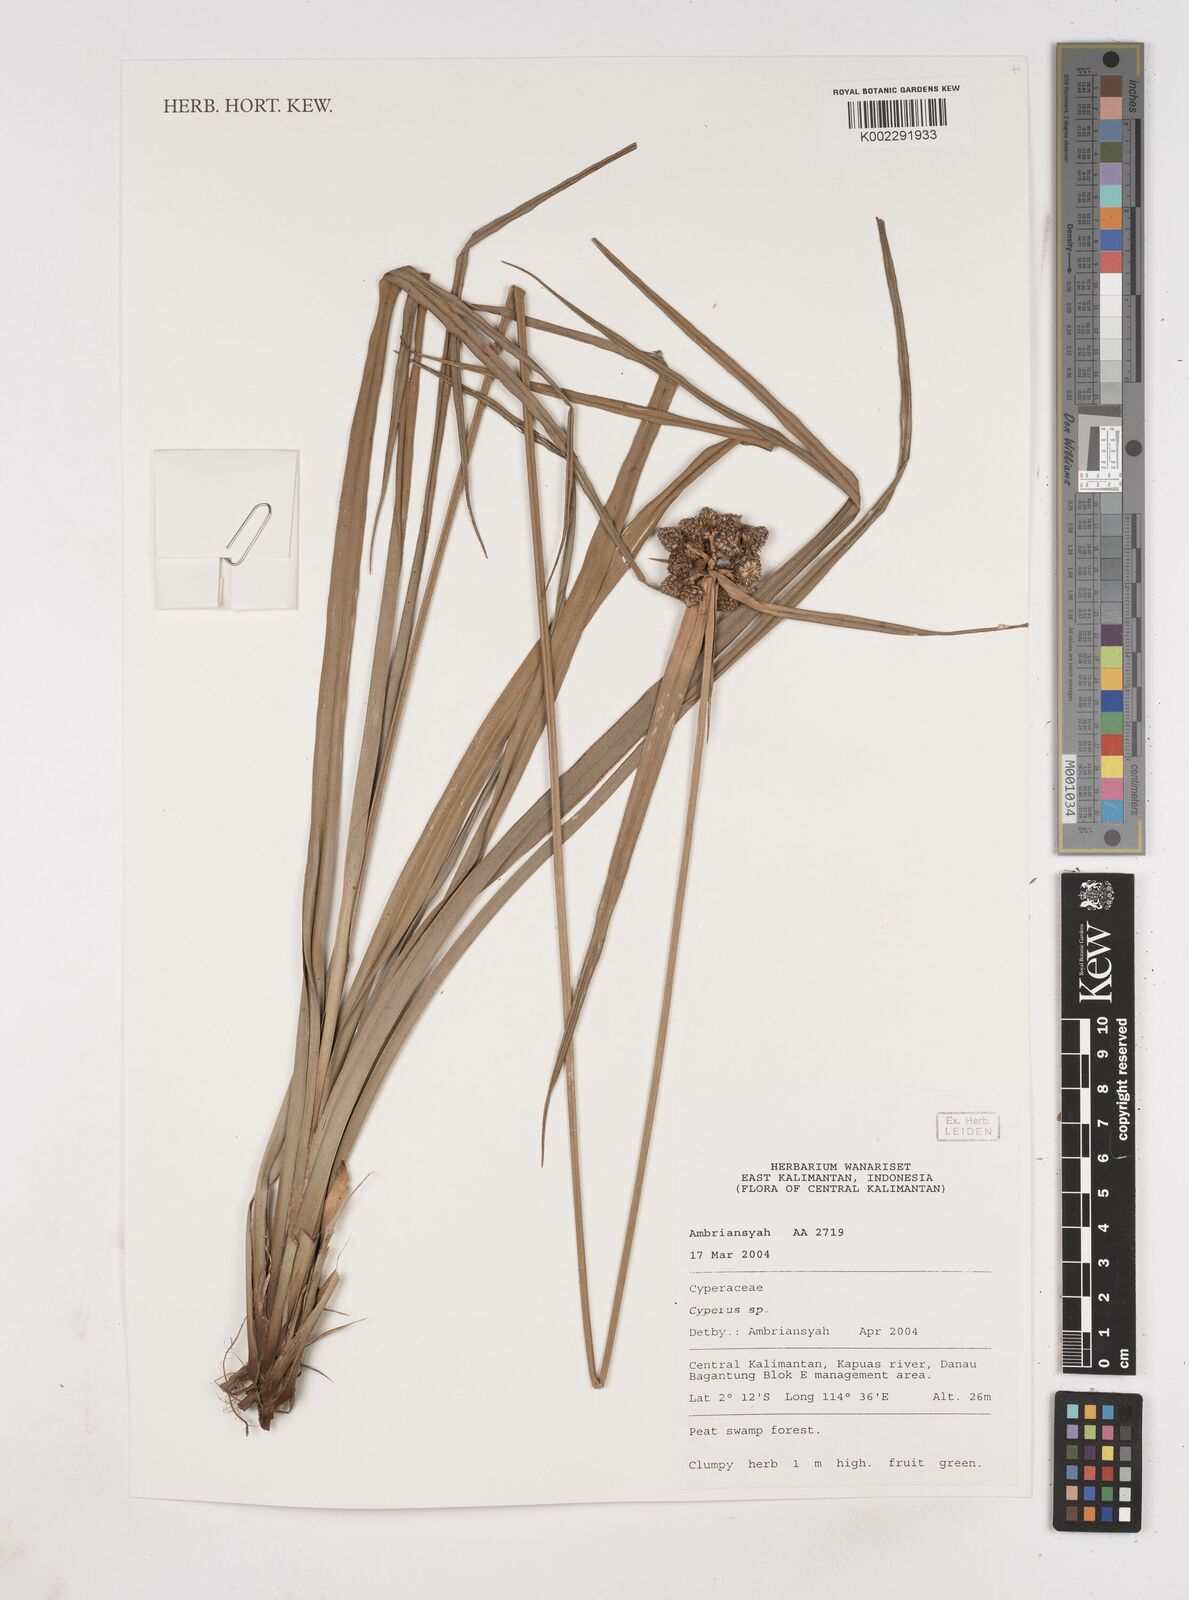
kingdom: Plantae
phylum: Tracheophyta
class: Liliopsida
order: Poales
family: Cyperaceae
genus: Cyperus
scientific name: Cyperus
